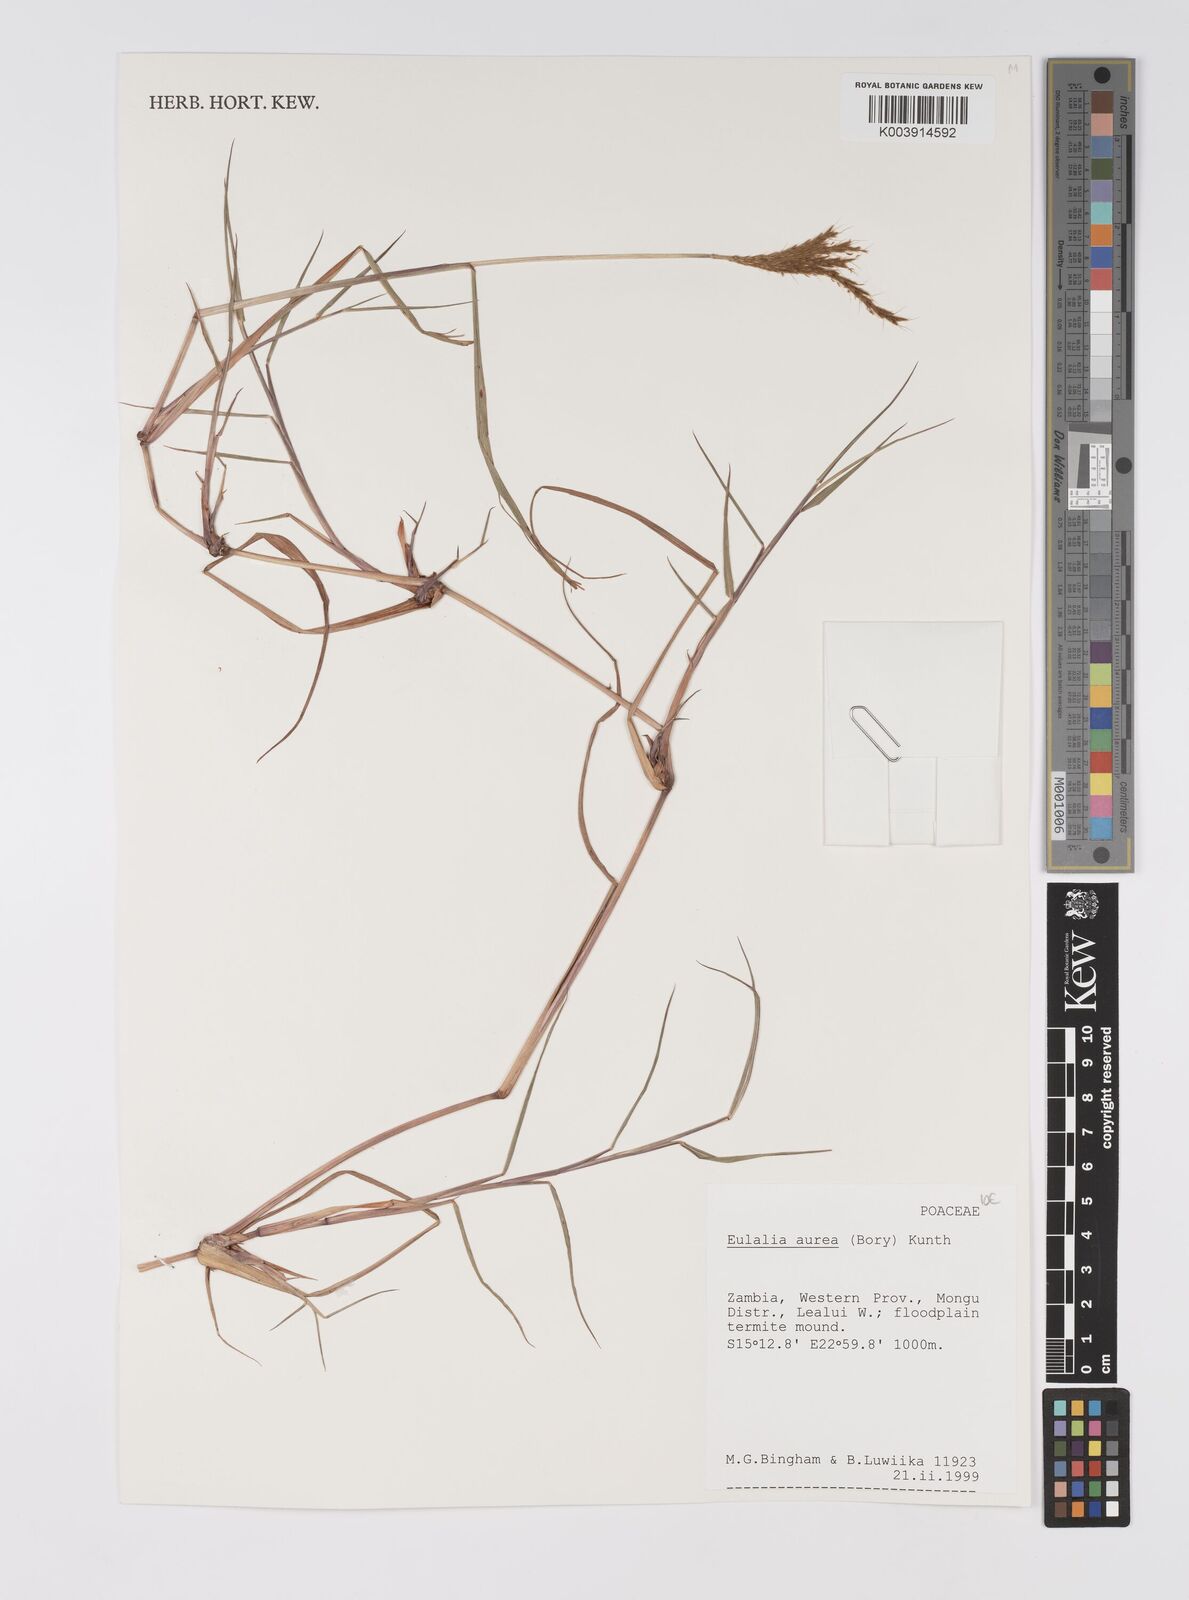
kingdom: Plantae
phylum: Tracheophyta
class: Liliopsida
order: Poales
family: Poaceae
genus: Eulalia
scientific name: Eulalia aurea
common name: Silky browntop
